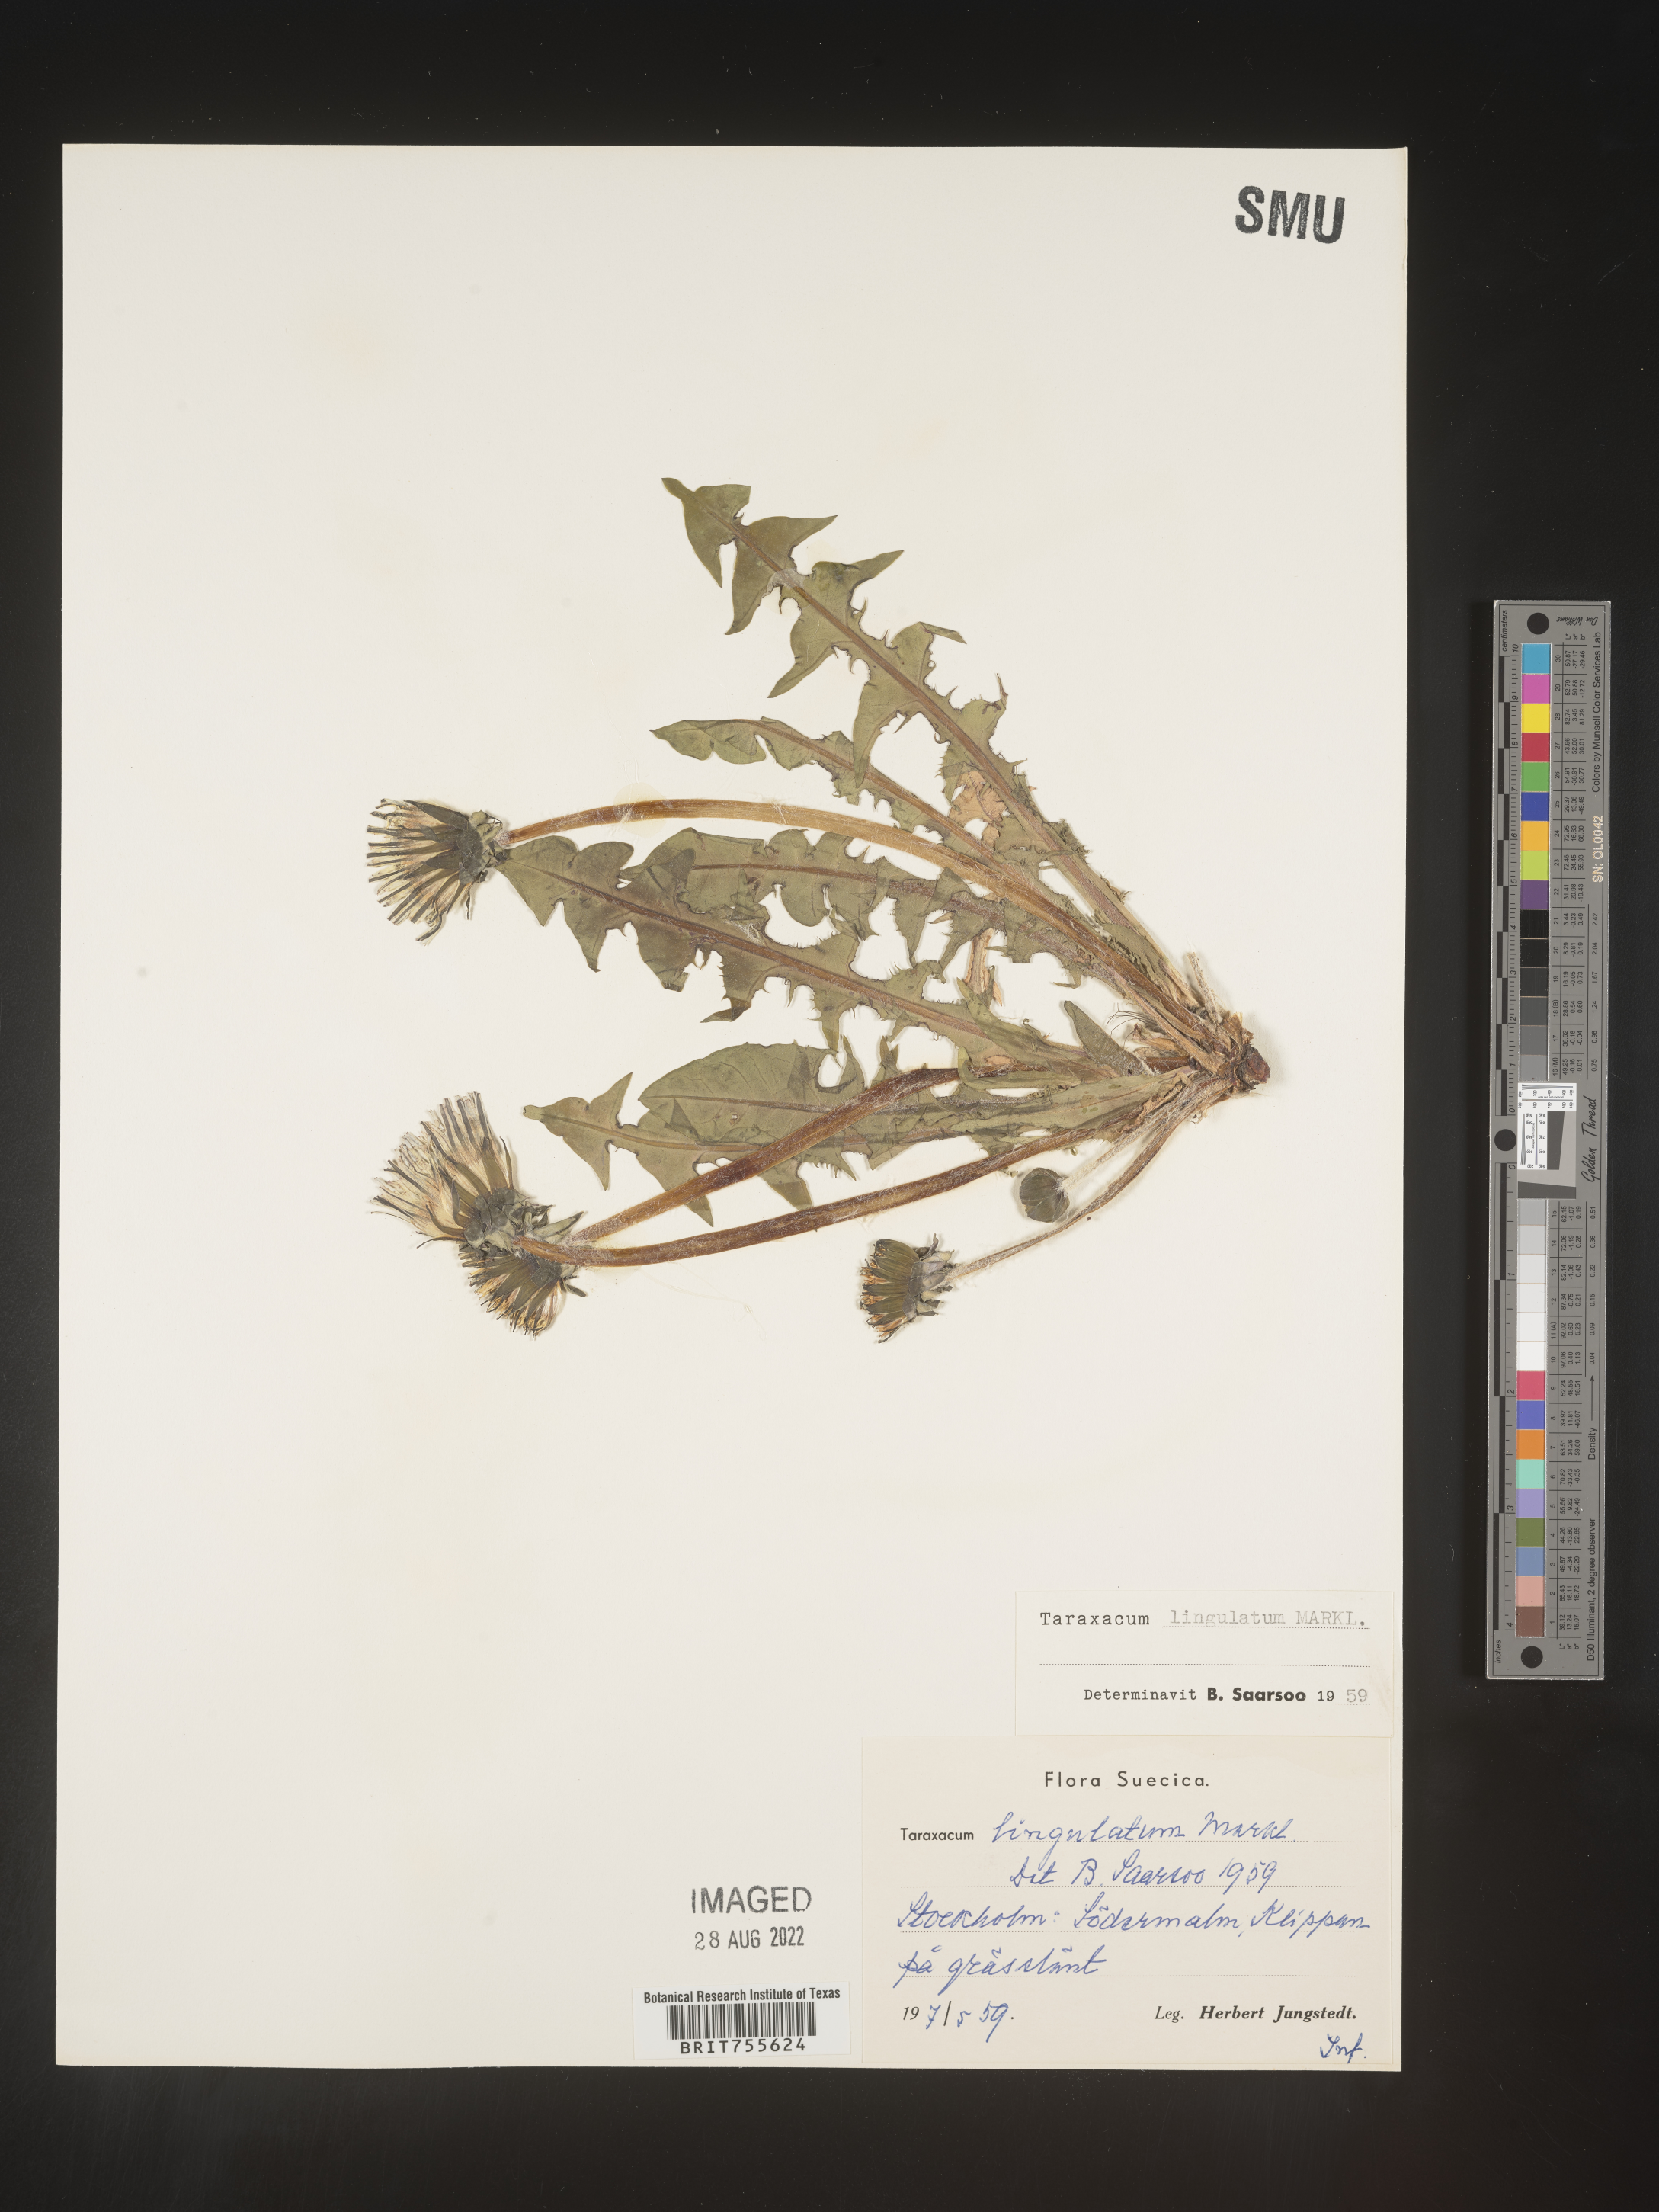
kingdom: Plantae
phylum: Tracheophyta
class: Magnoliopsida
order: Asterales
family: Asteraceae
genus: Taraxacum
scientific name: Taraxacum
